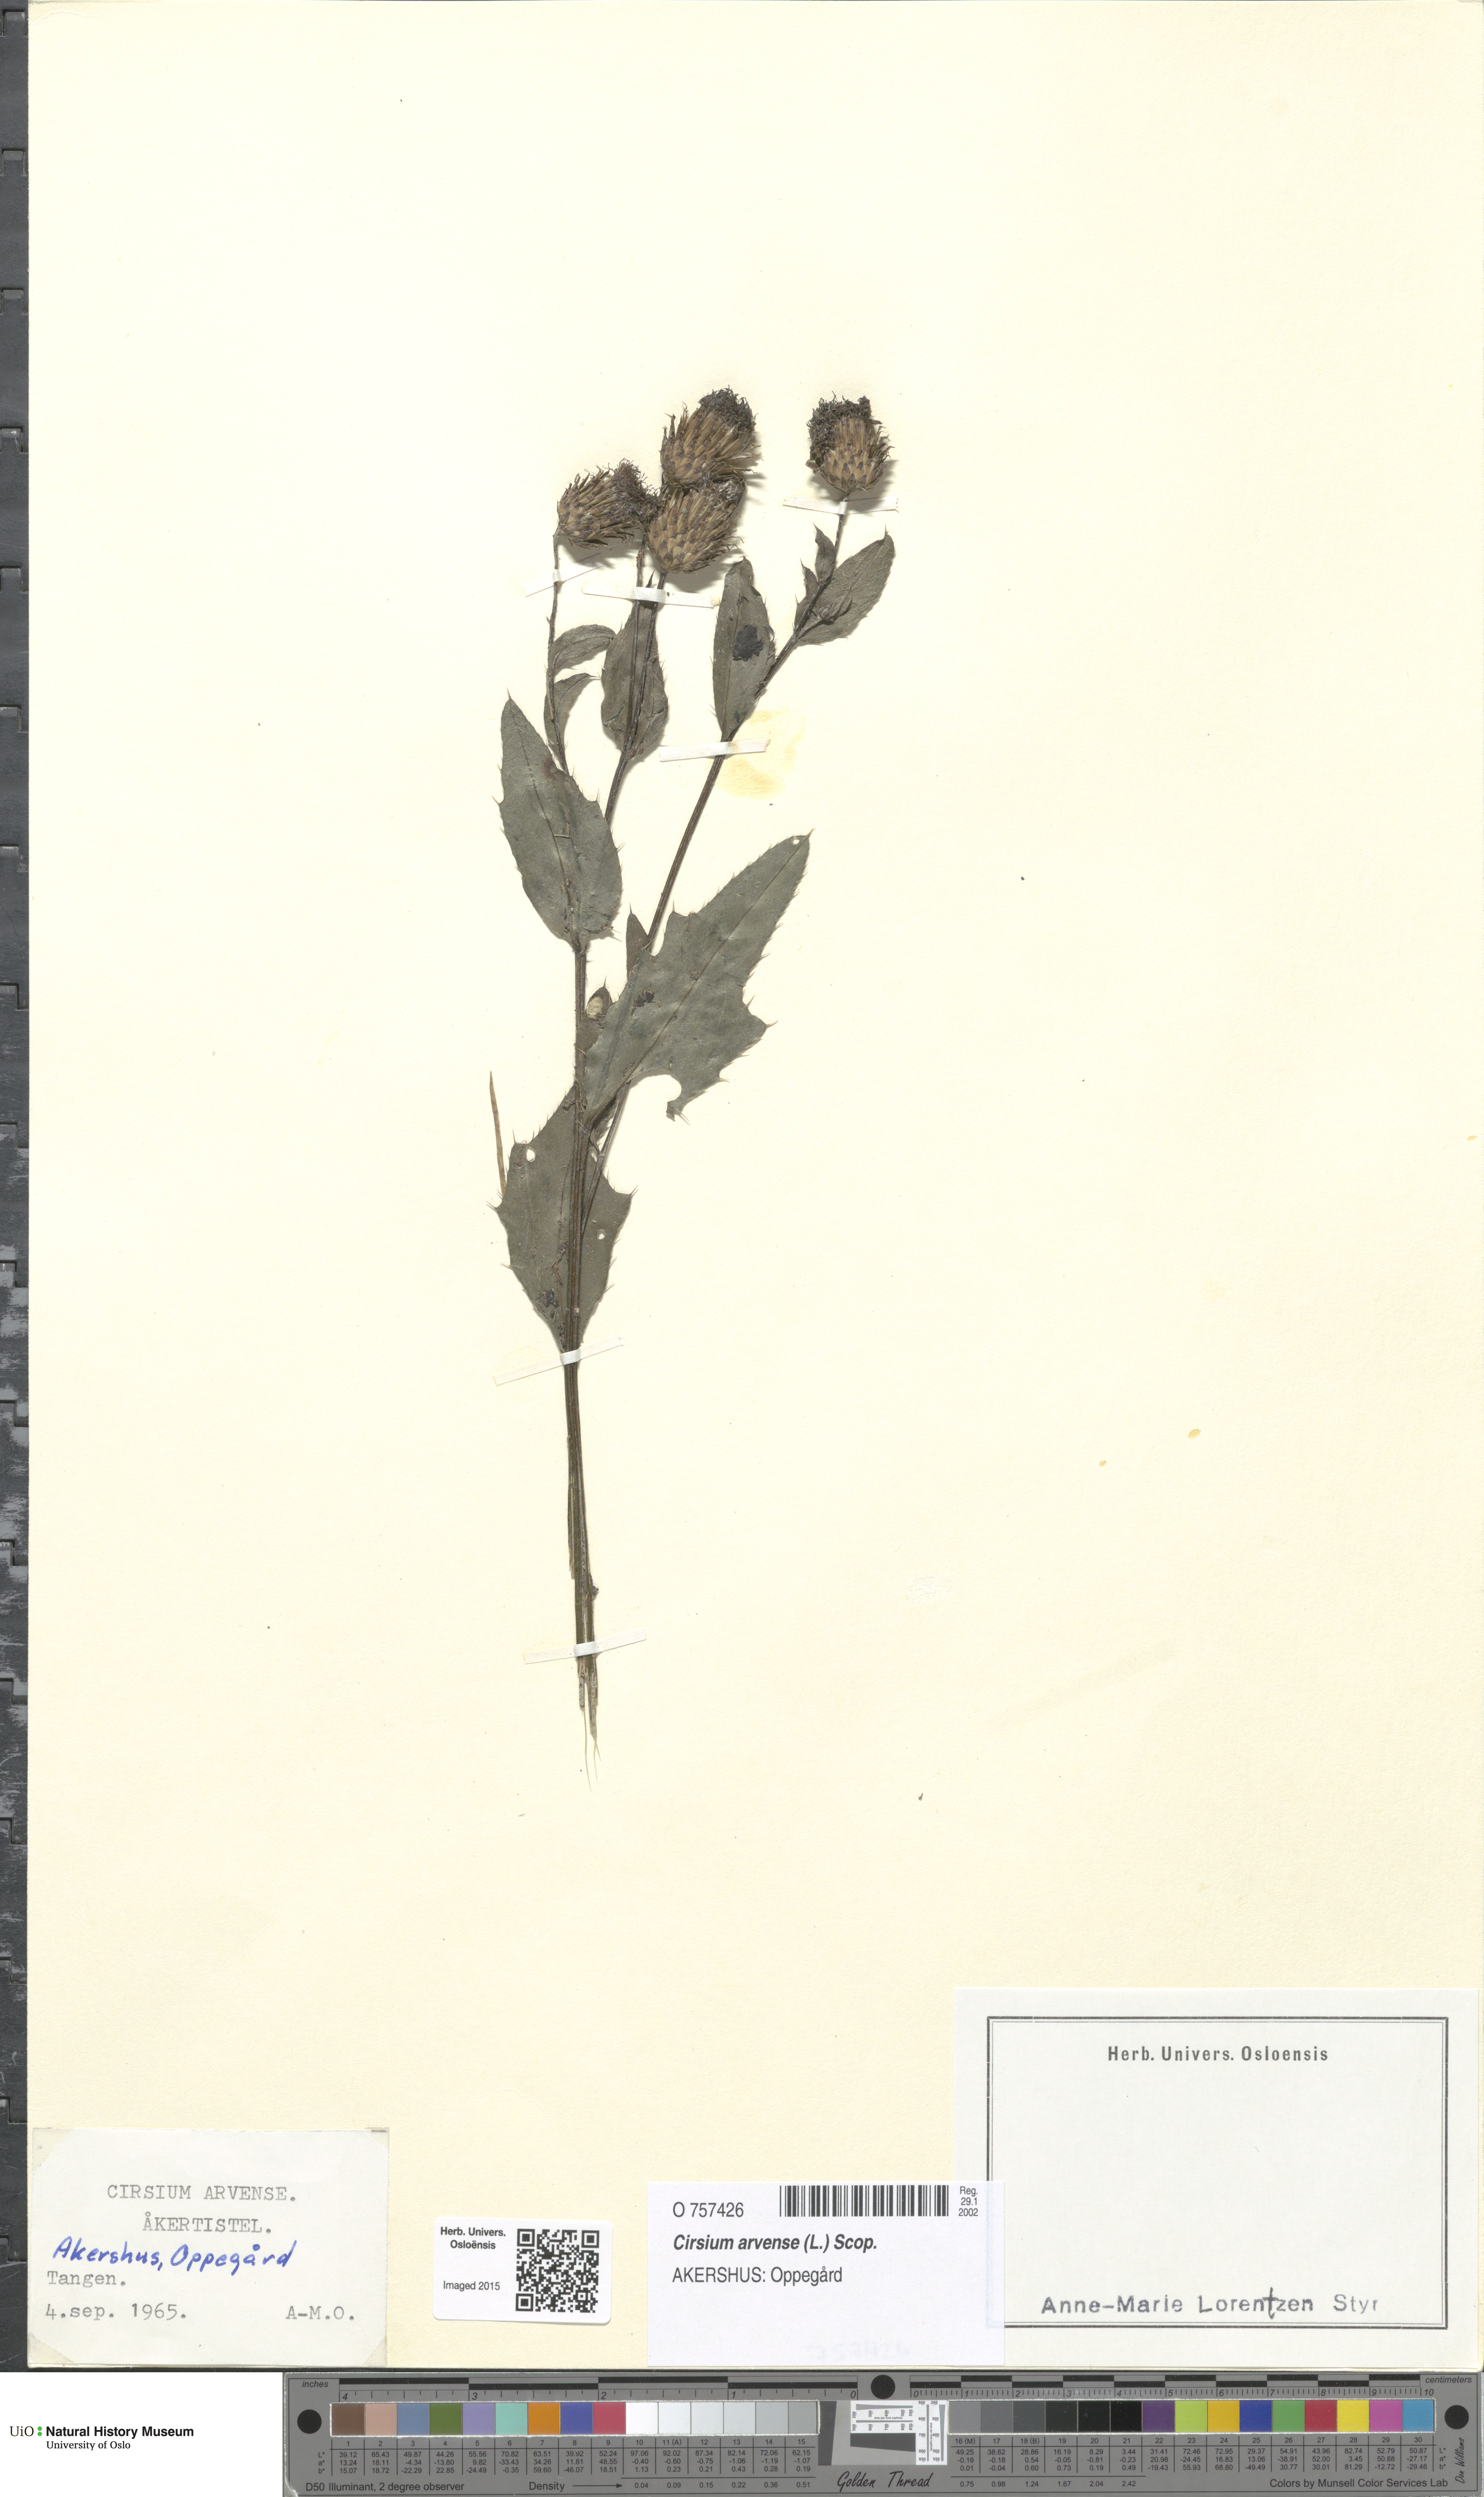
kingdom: Plantae
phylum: Tracheophyta
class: Magnoliopsida
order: Asterales
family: Asteraceae
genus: Cirsium
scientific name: Cirsium arvense
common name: Creeping thistle
